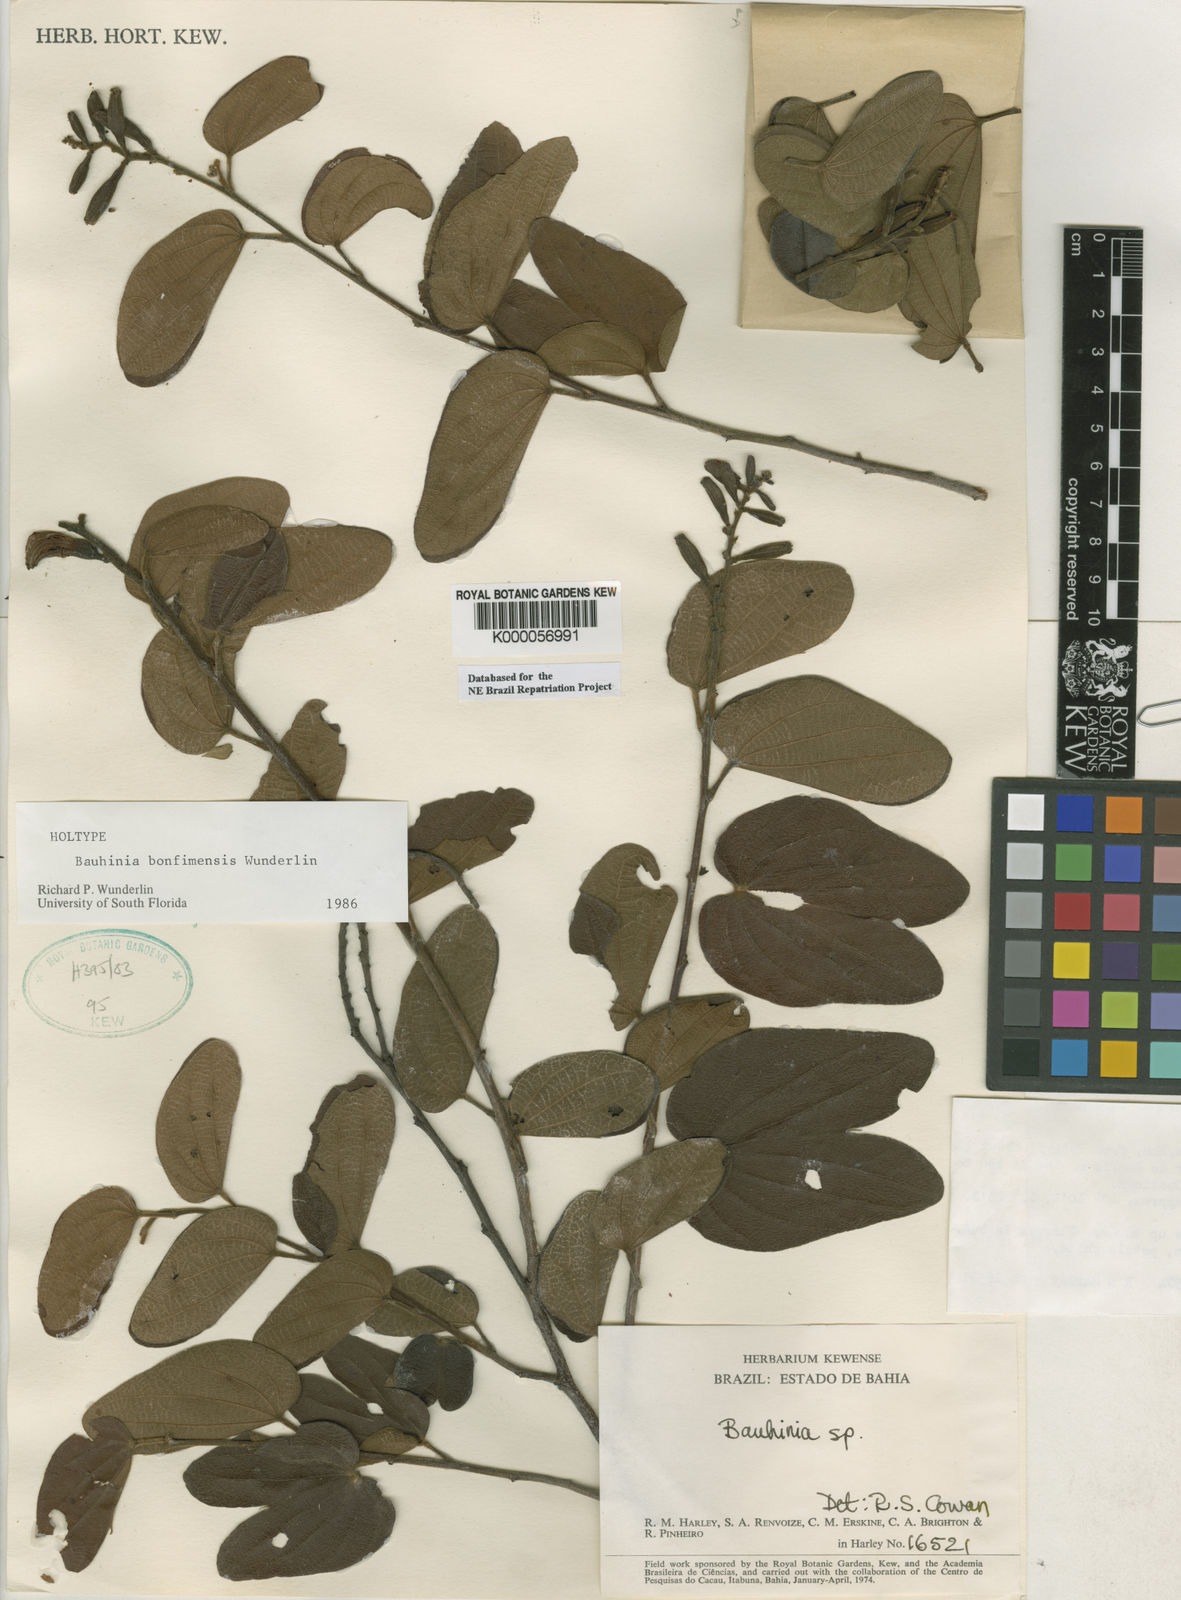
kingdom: Plantae
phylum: Tracheophyta
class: Magnoliopsida
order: Fabales
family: Fabaceae
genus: Bauhinia
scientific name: Bauhinia
